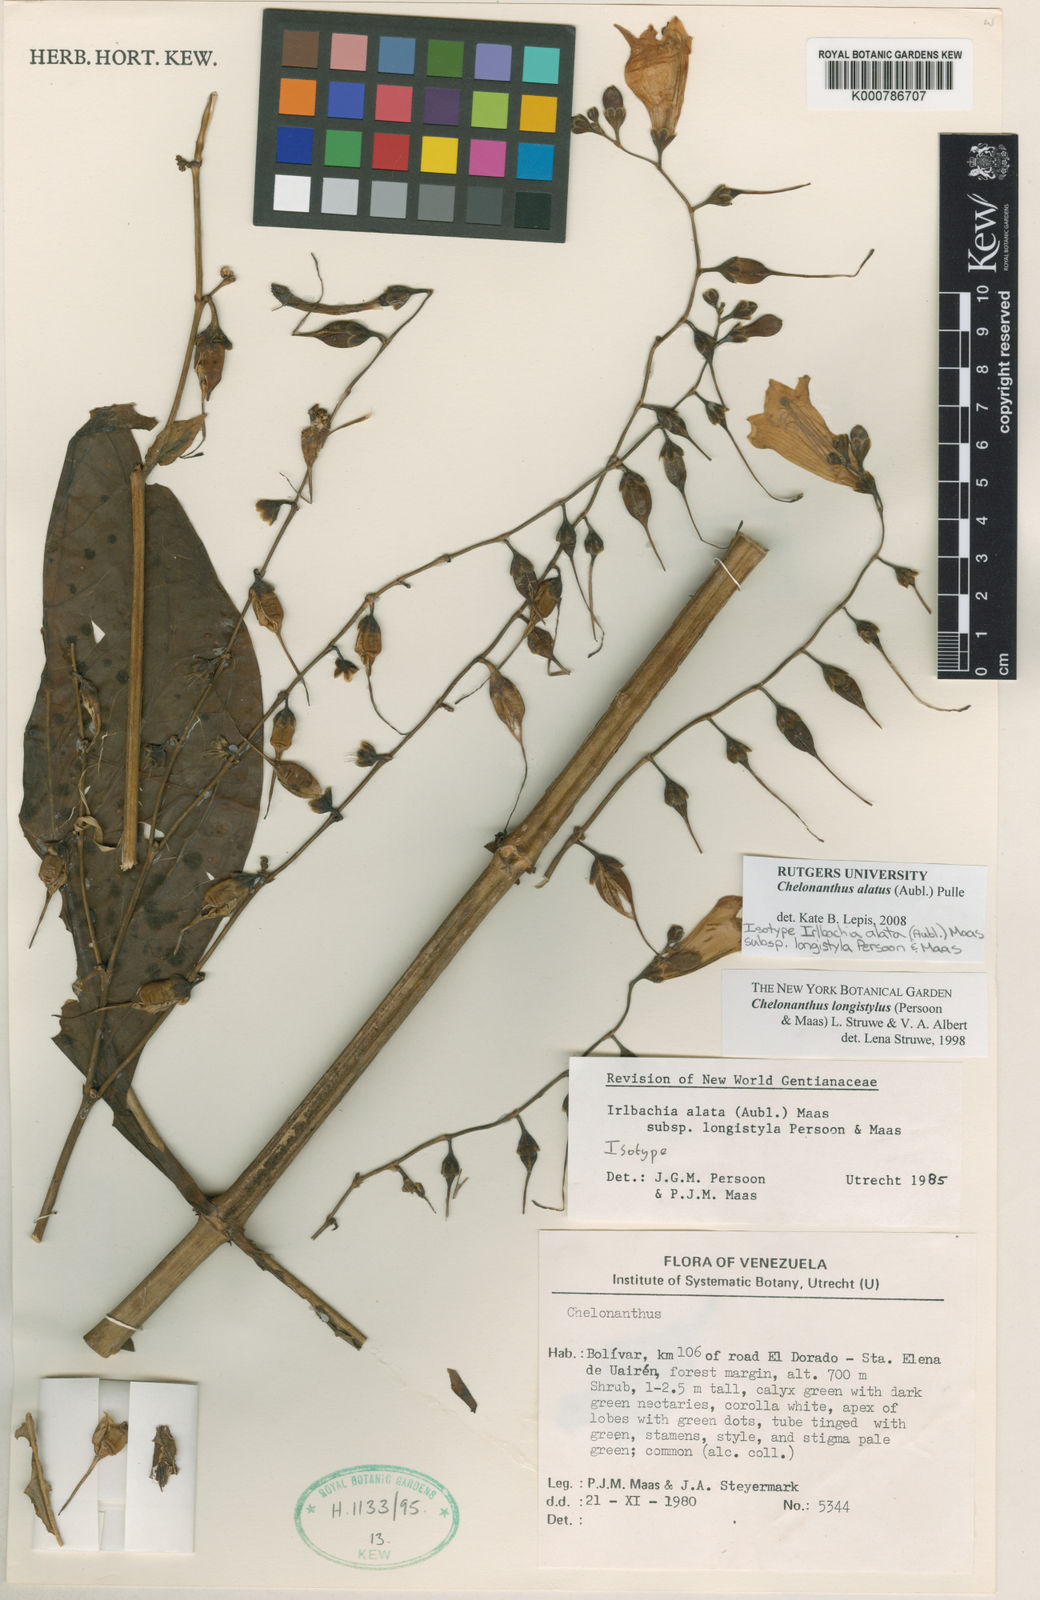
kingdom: Plantae
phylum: Tracheophyta
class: Magnoliopsida
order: Gentianales
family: Gentianaceae
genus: Chelonanthus
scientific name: Chelonanthus alatus
